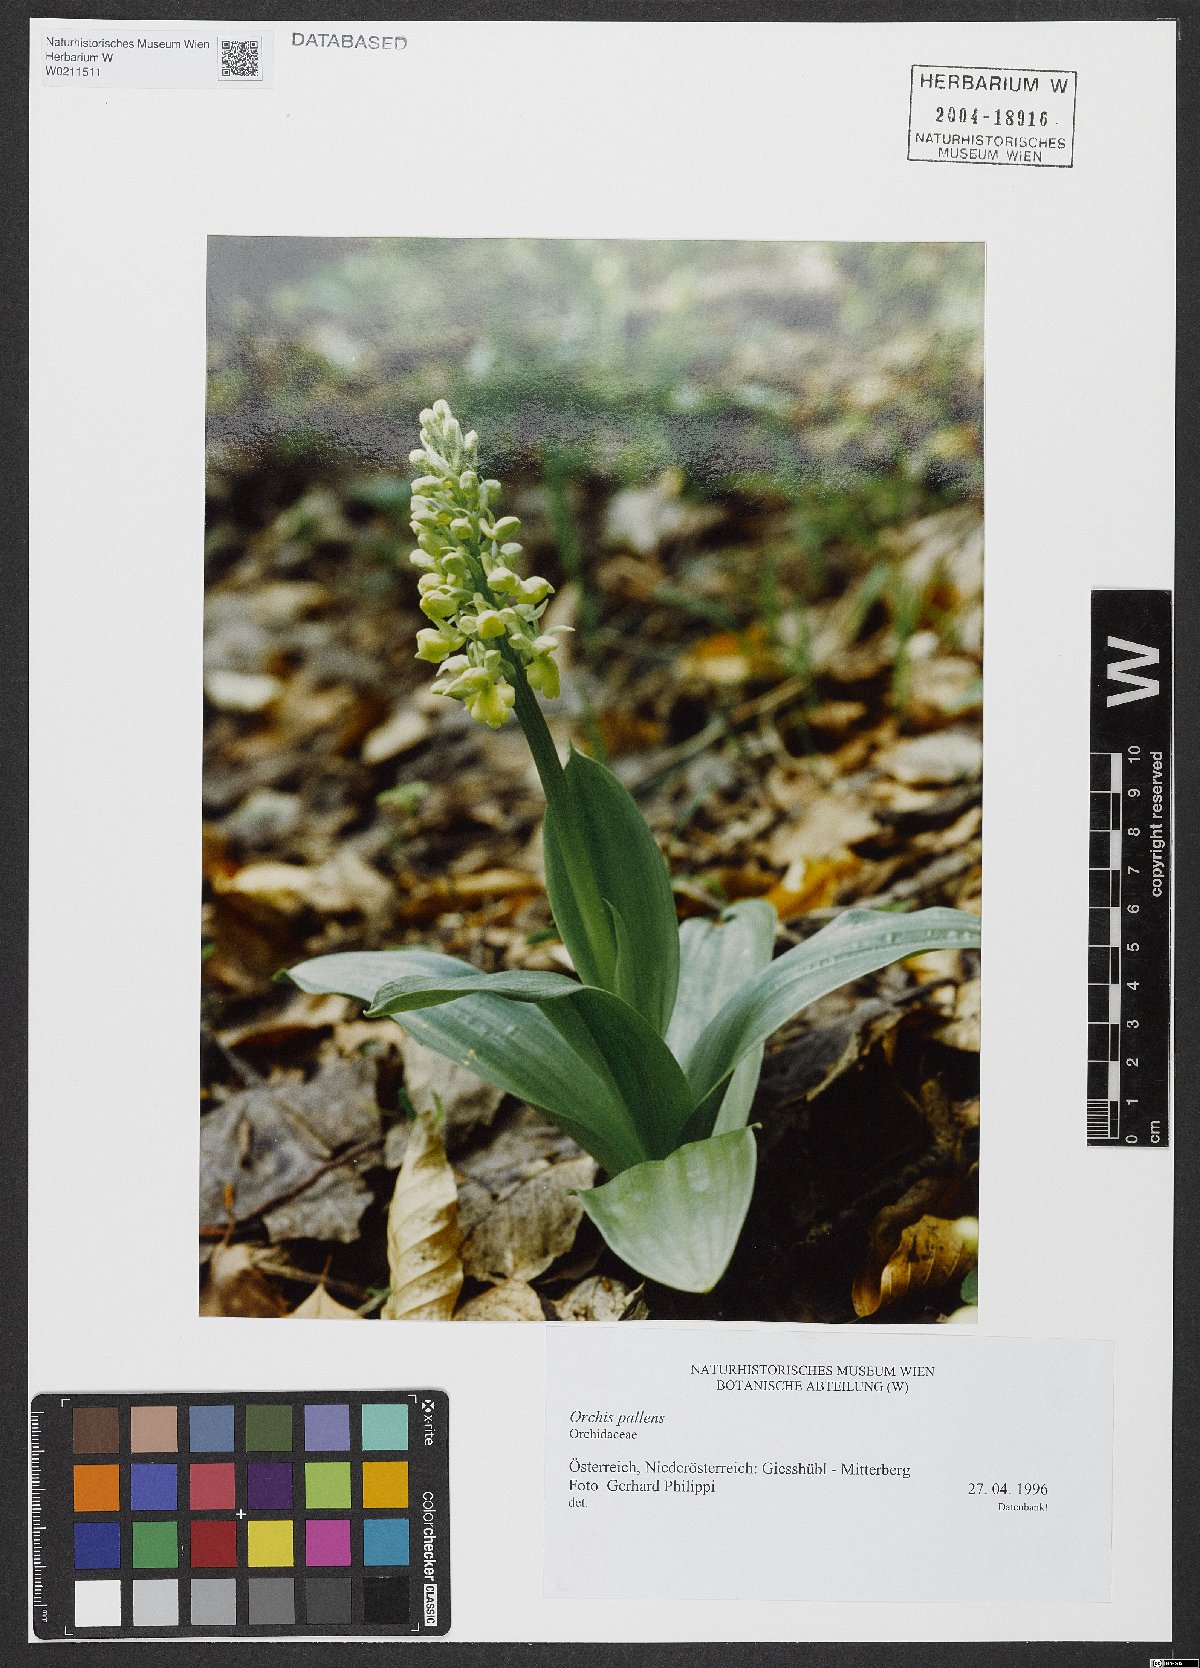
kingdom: Plantae
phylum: Tracheophyta
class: Liliopsida
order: Asparagales
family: Orchidaceae
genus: Orchis
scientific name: Orchis pallens
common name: Pale-flowered orchid
